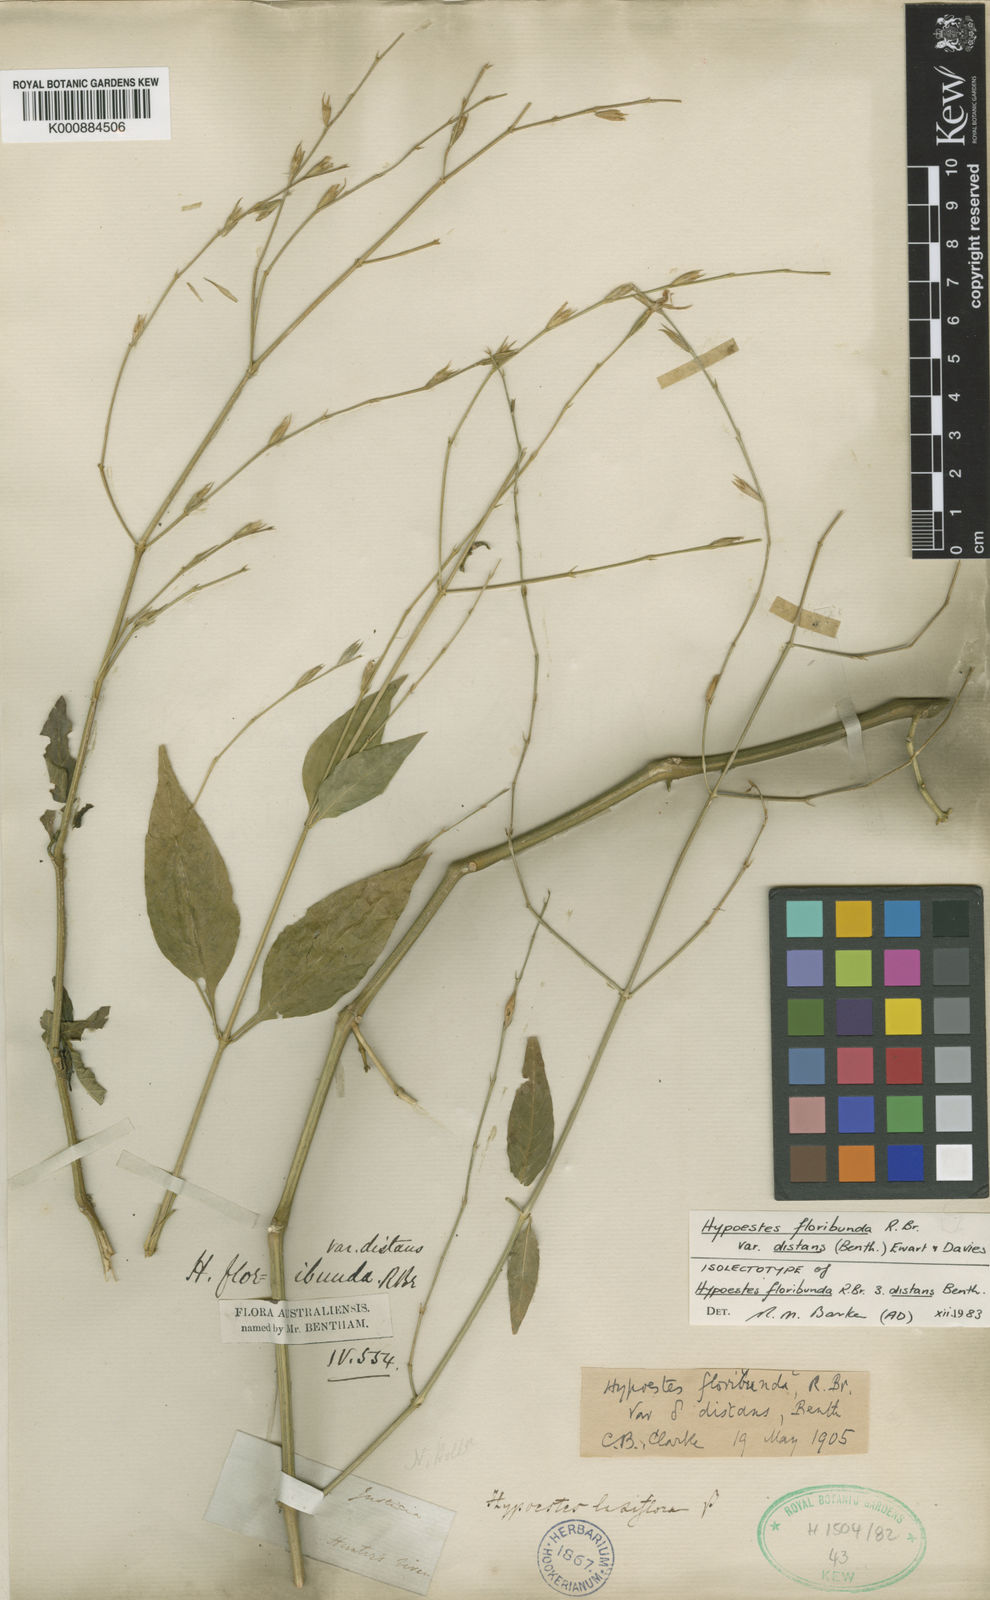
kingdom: Plantae
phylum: Tracheophyta
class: Magnoliopsida
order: Lamiales
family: Acanthaceae
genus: Hypoestes
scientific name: Hypoestes floribunda
